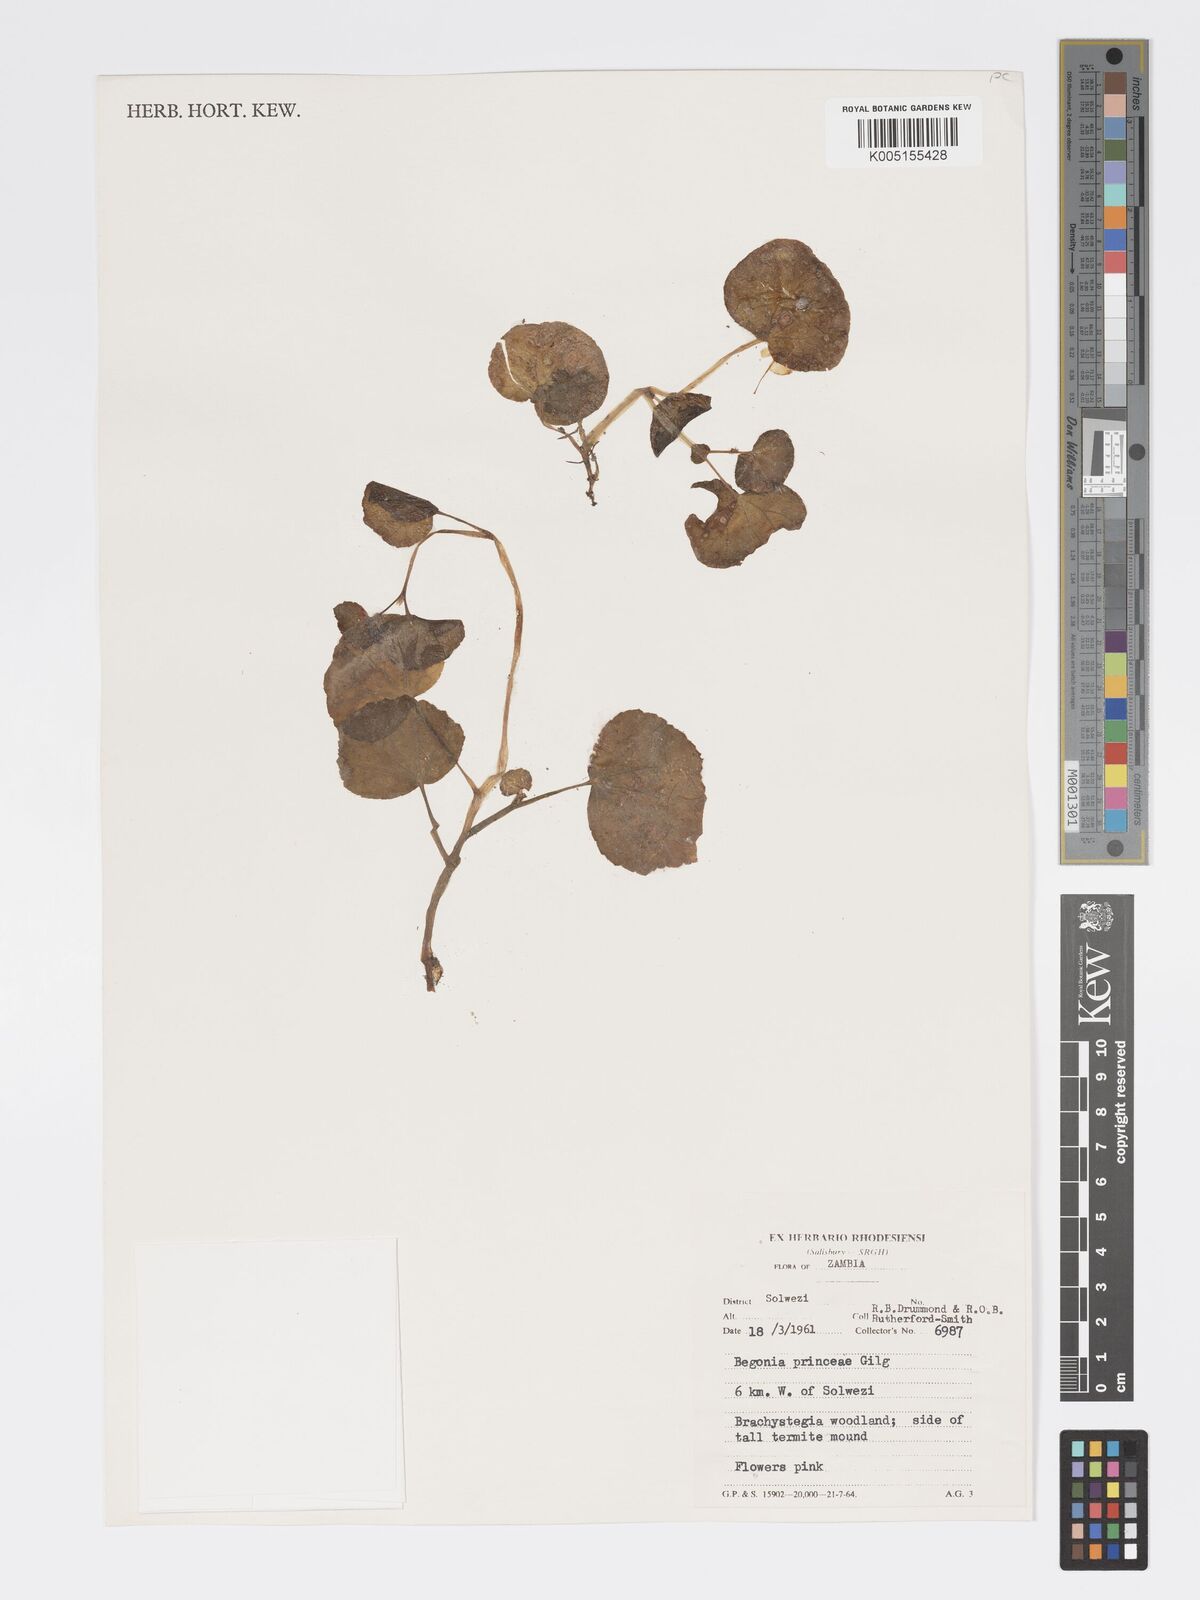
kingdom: Plantae
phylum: Tracheophyta
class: Magnoliopsida
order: Cucurbitales
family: Begoniaceae
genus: Begonia
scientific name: Begonia princeae
